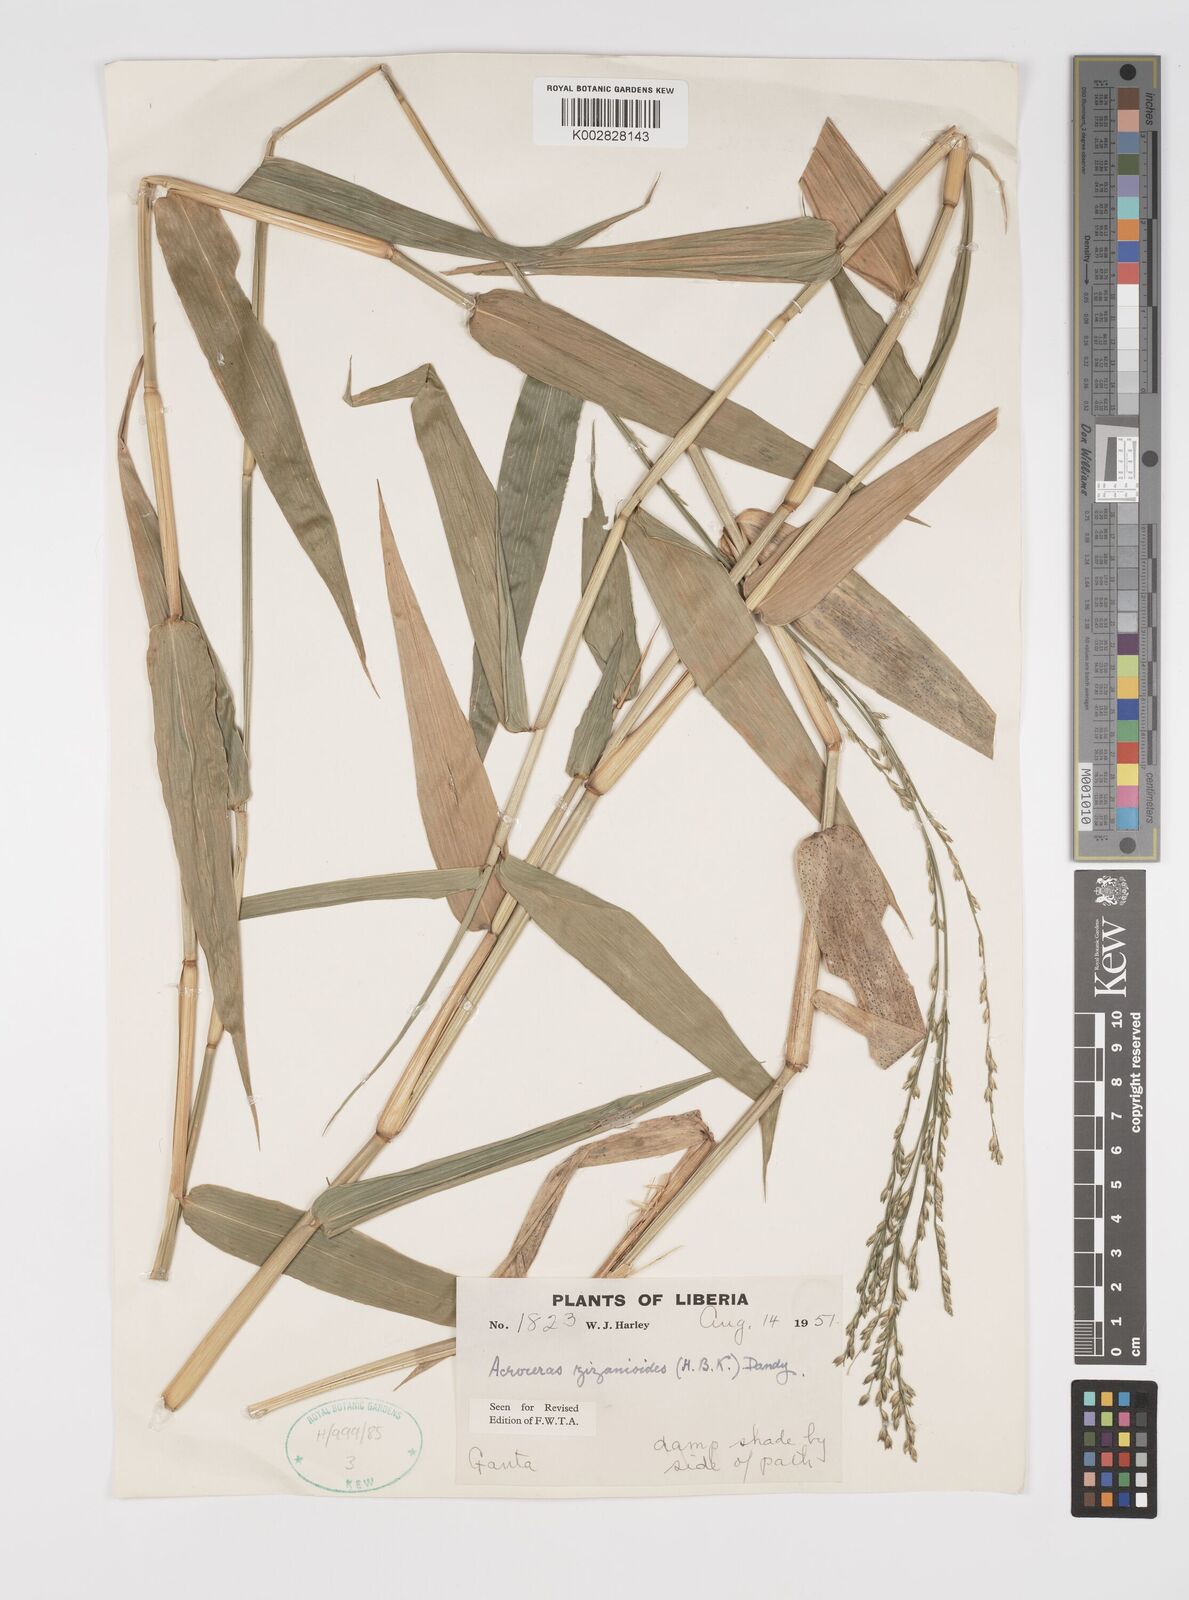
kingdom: Plantae
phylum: Tracheophyta
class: Liliopsida
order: Poales
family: Poaceae
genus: Acroceras
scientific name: Acroceras zizanioides
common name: Oat grass
